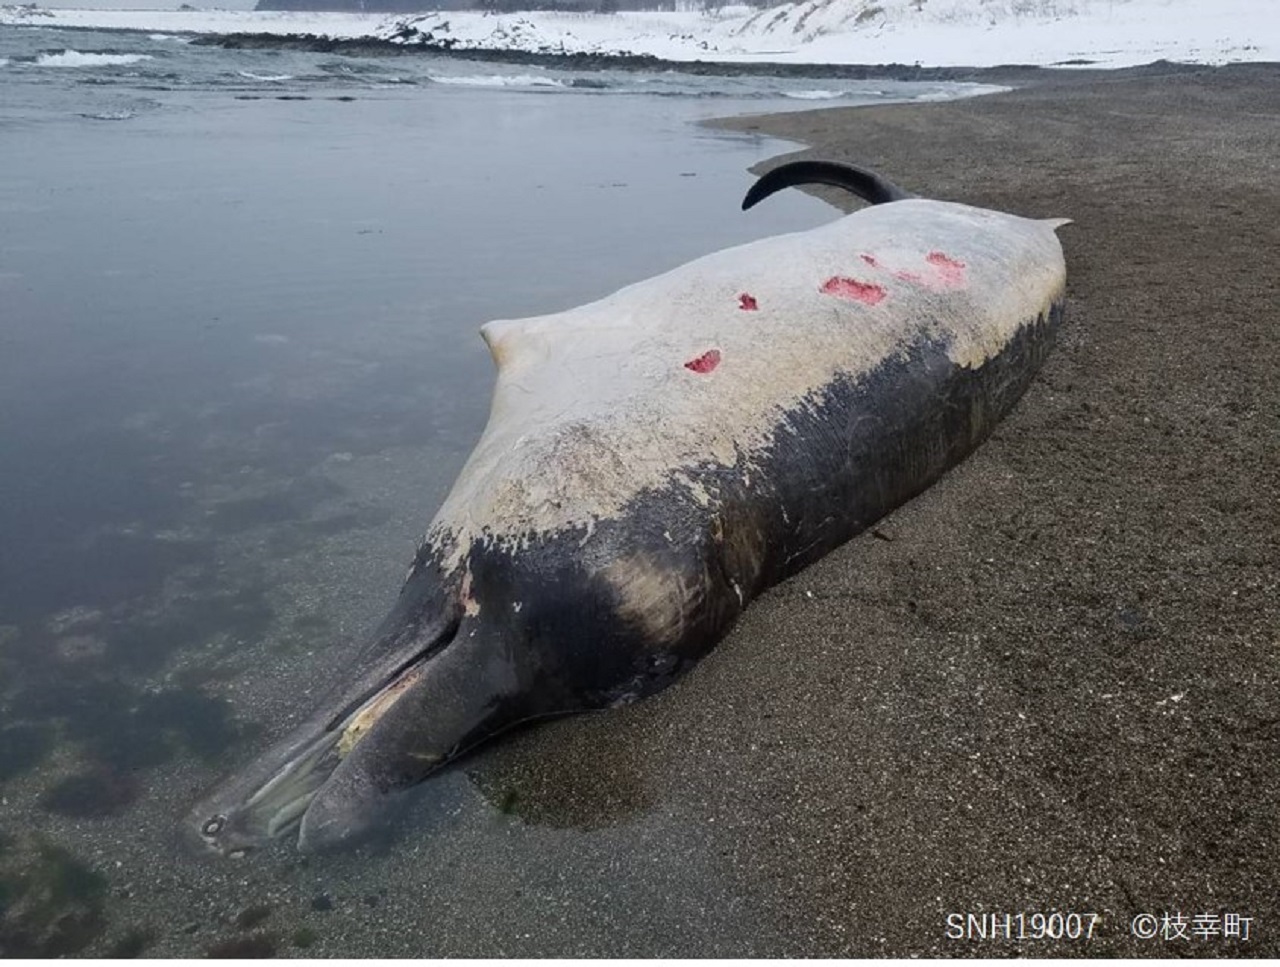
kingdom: Animalia
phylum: Chordata
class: Mammalia
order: Cetacea
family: Hyperoodontidae
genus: Berardius
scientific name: Berardius bairdii
